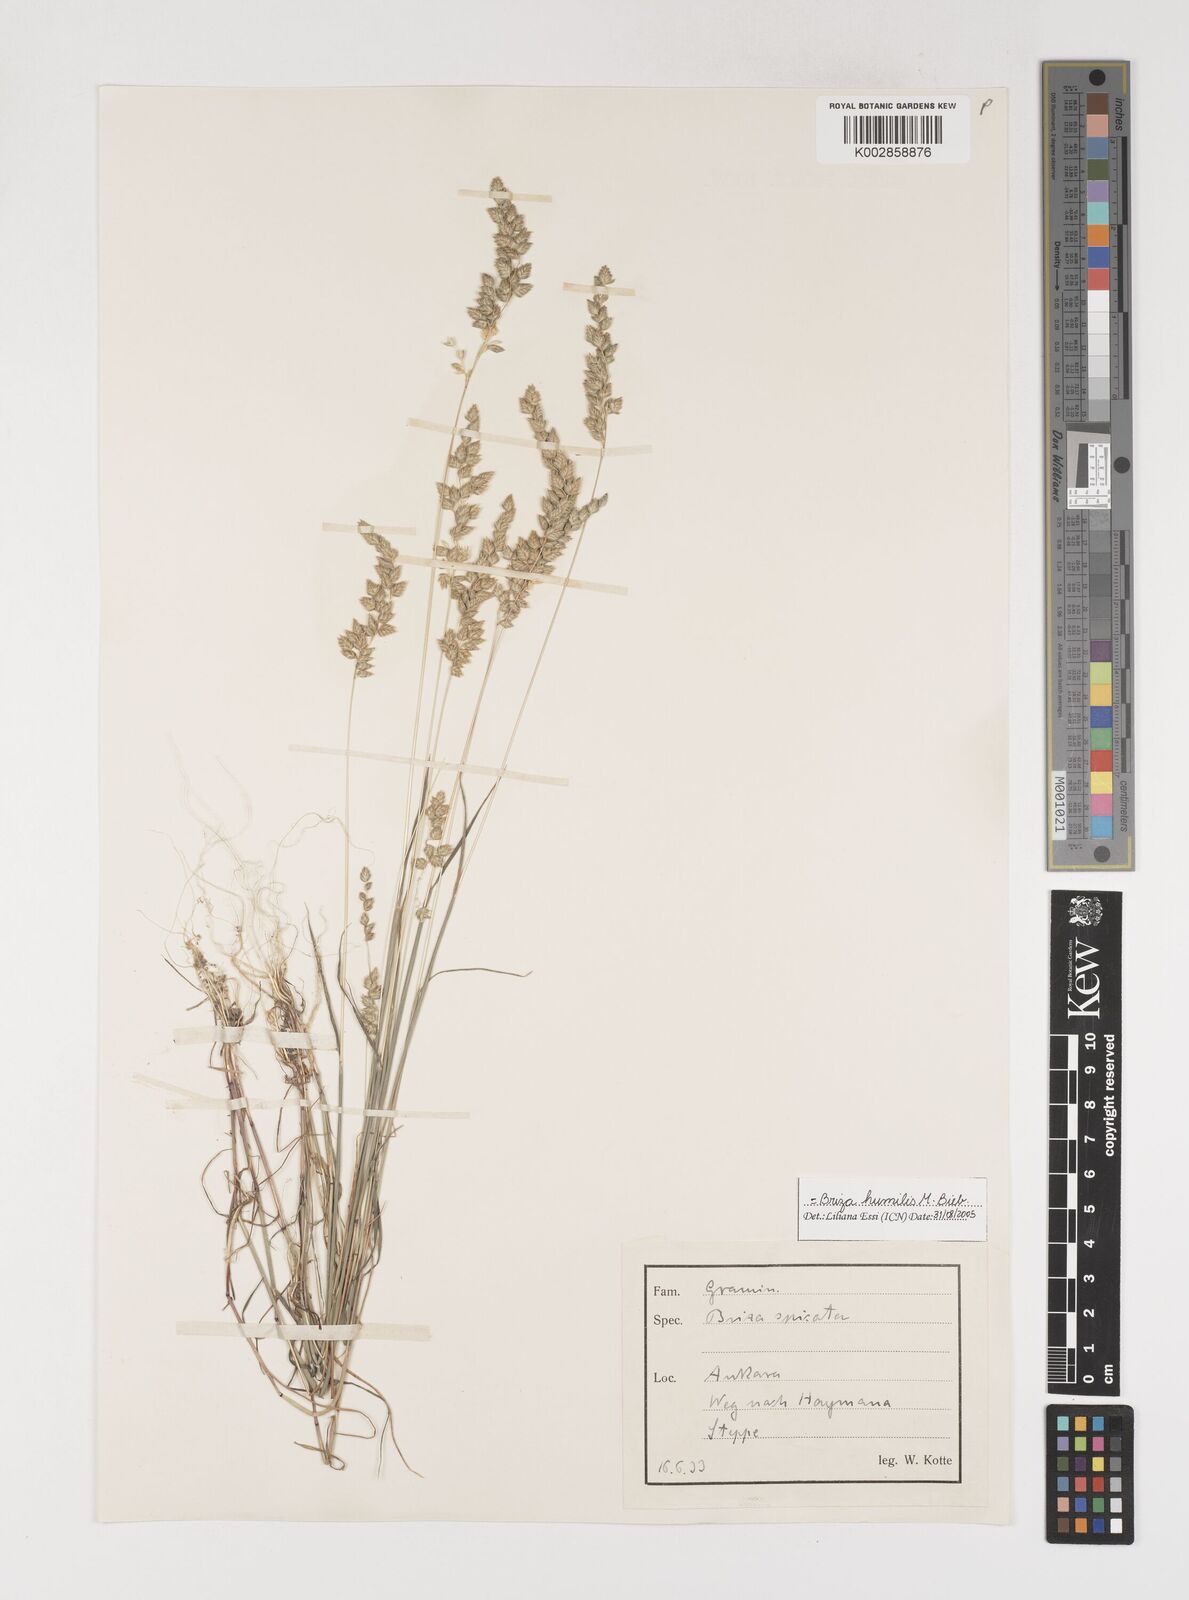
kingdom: Plantae
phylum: Tracheophyta
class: Liliopsida
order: Poales
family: Poaceae
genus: Briza
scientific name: Briza humilis
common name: Spiked quaking grass
